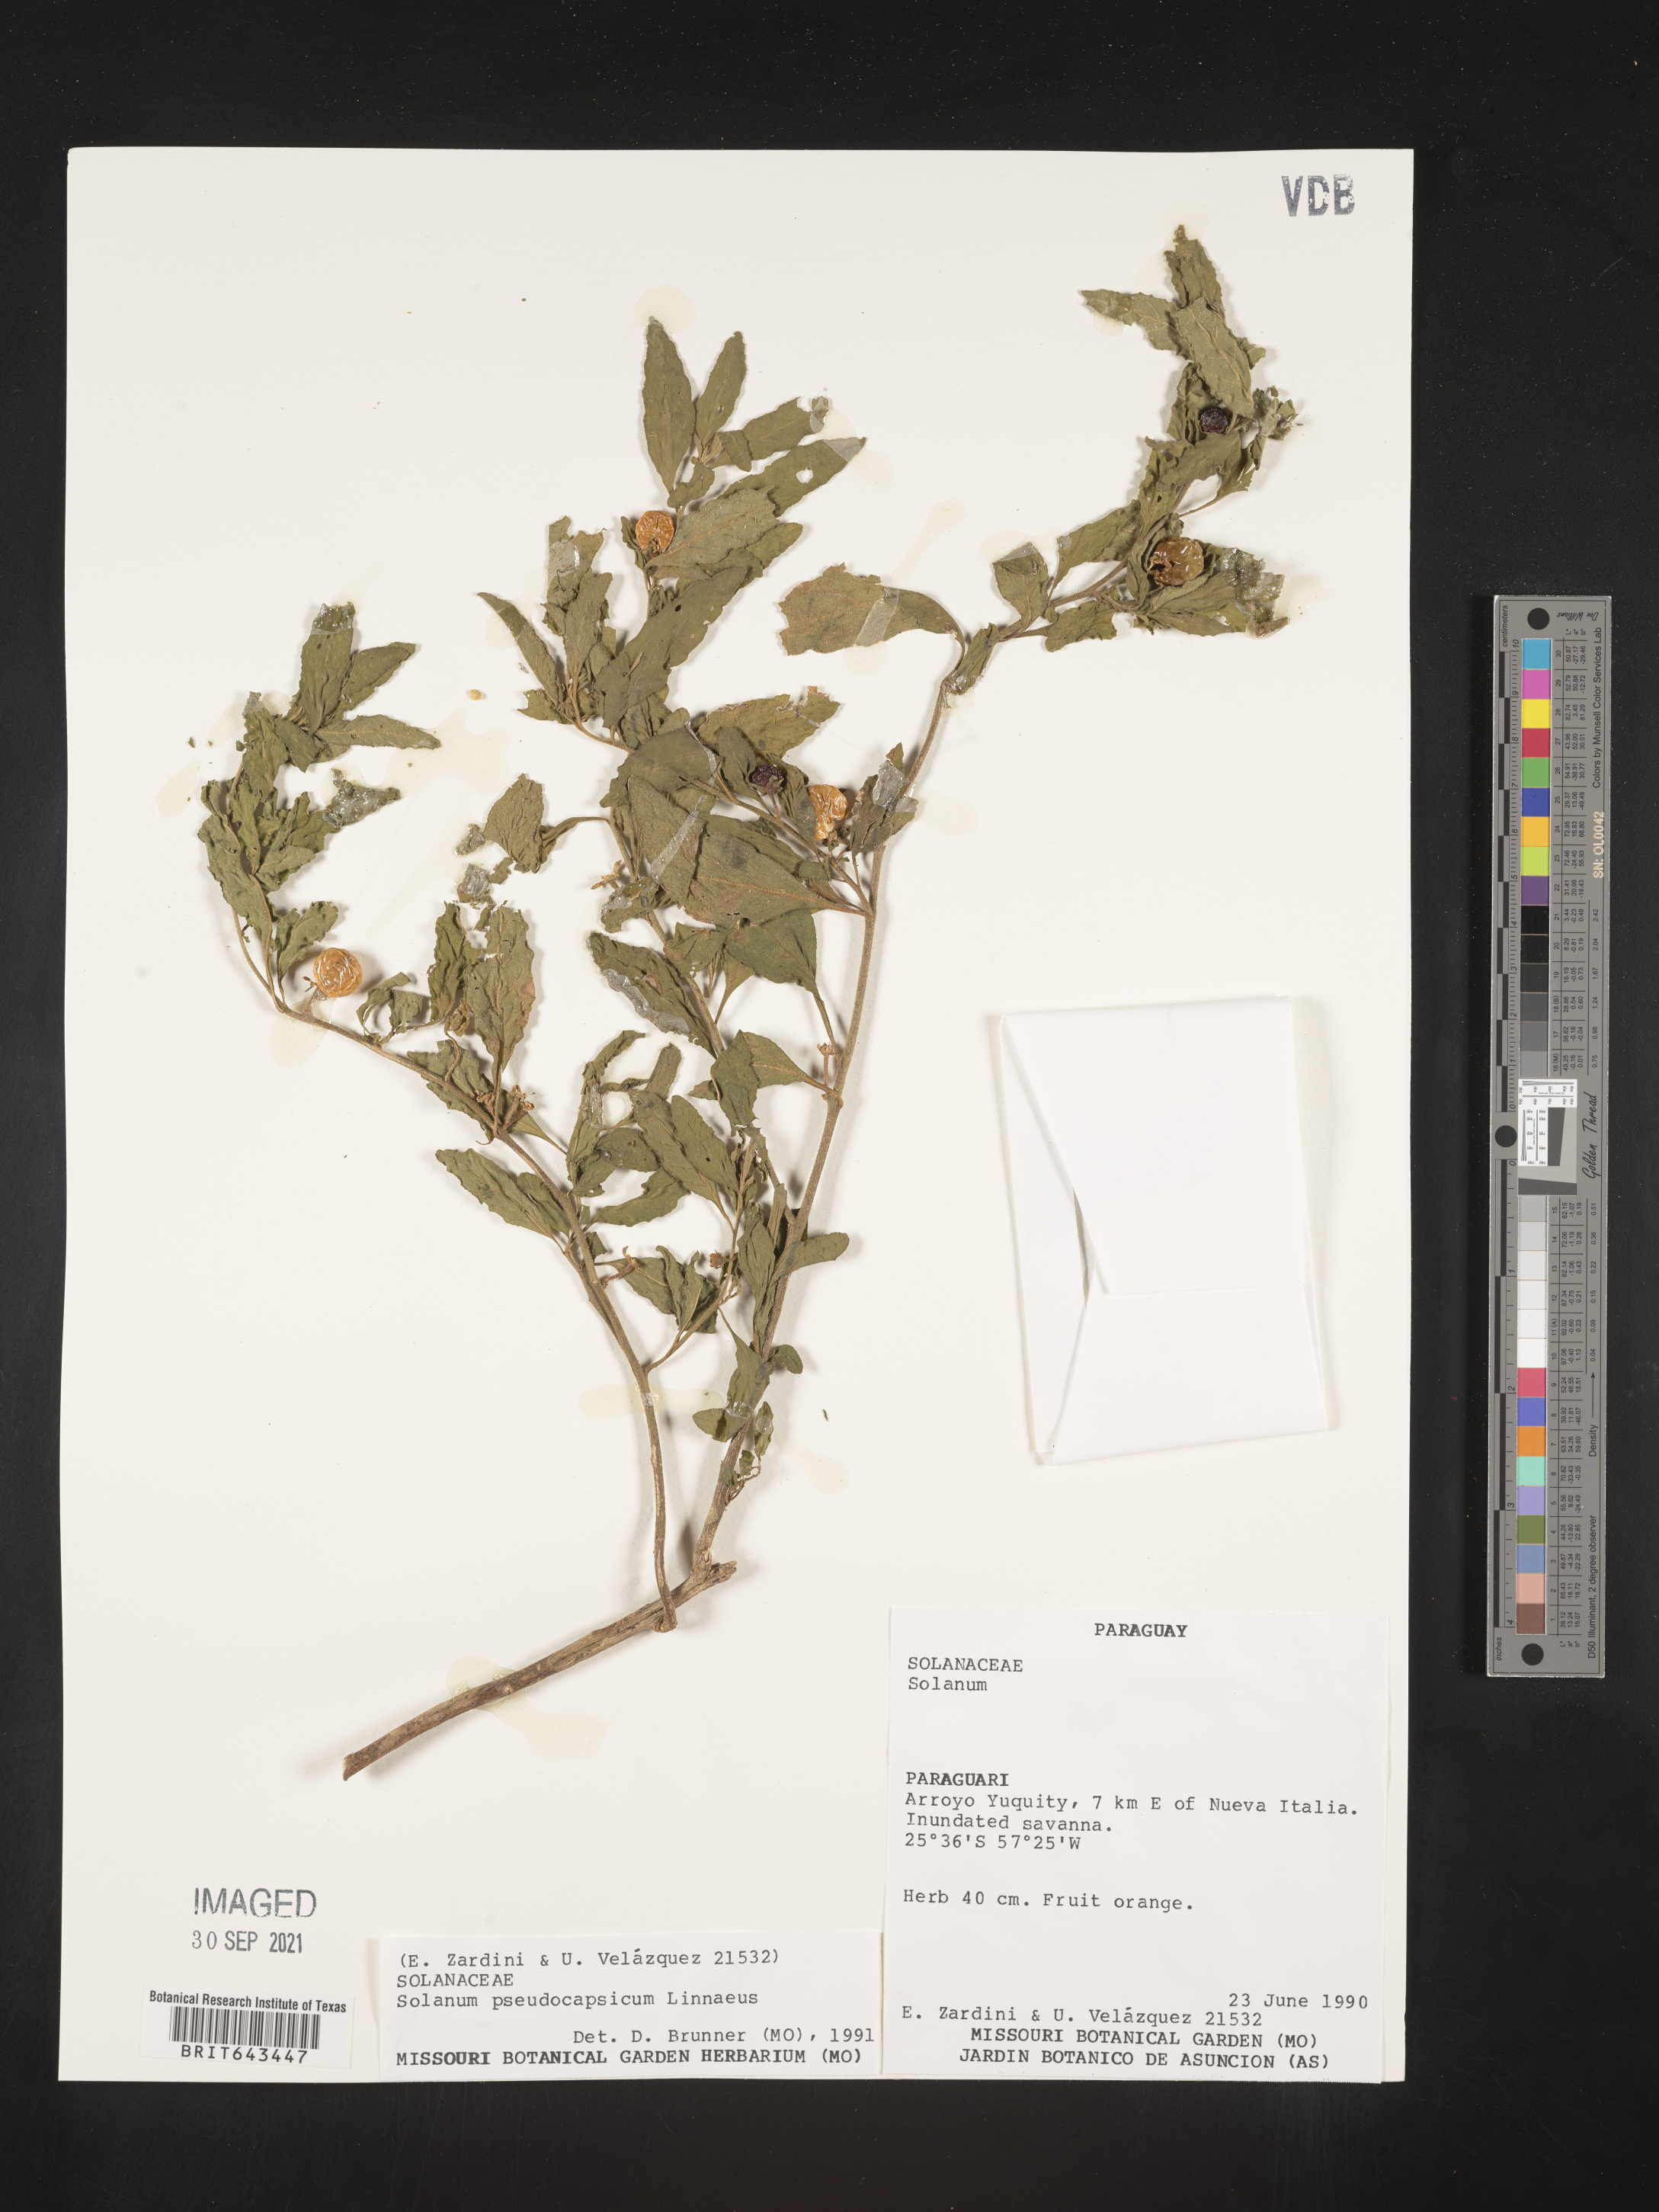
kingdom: Plantae
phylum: Tracheophyta
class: Magnoliopsida
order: Solanales
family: Solanaceae
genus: Solanum
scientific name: Solanum
